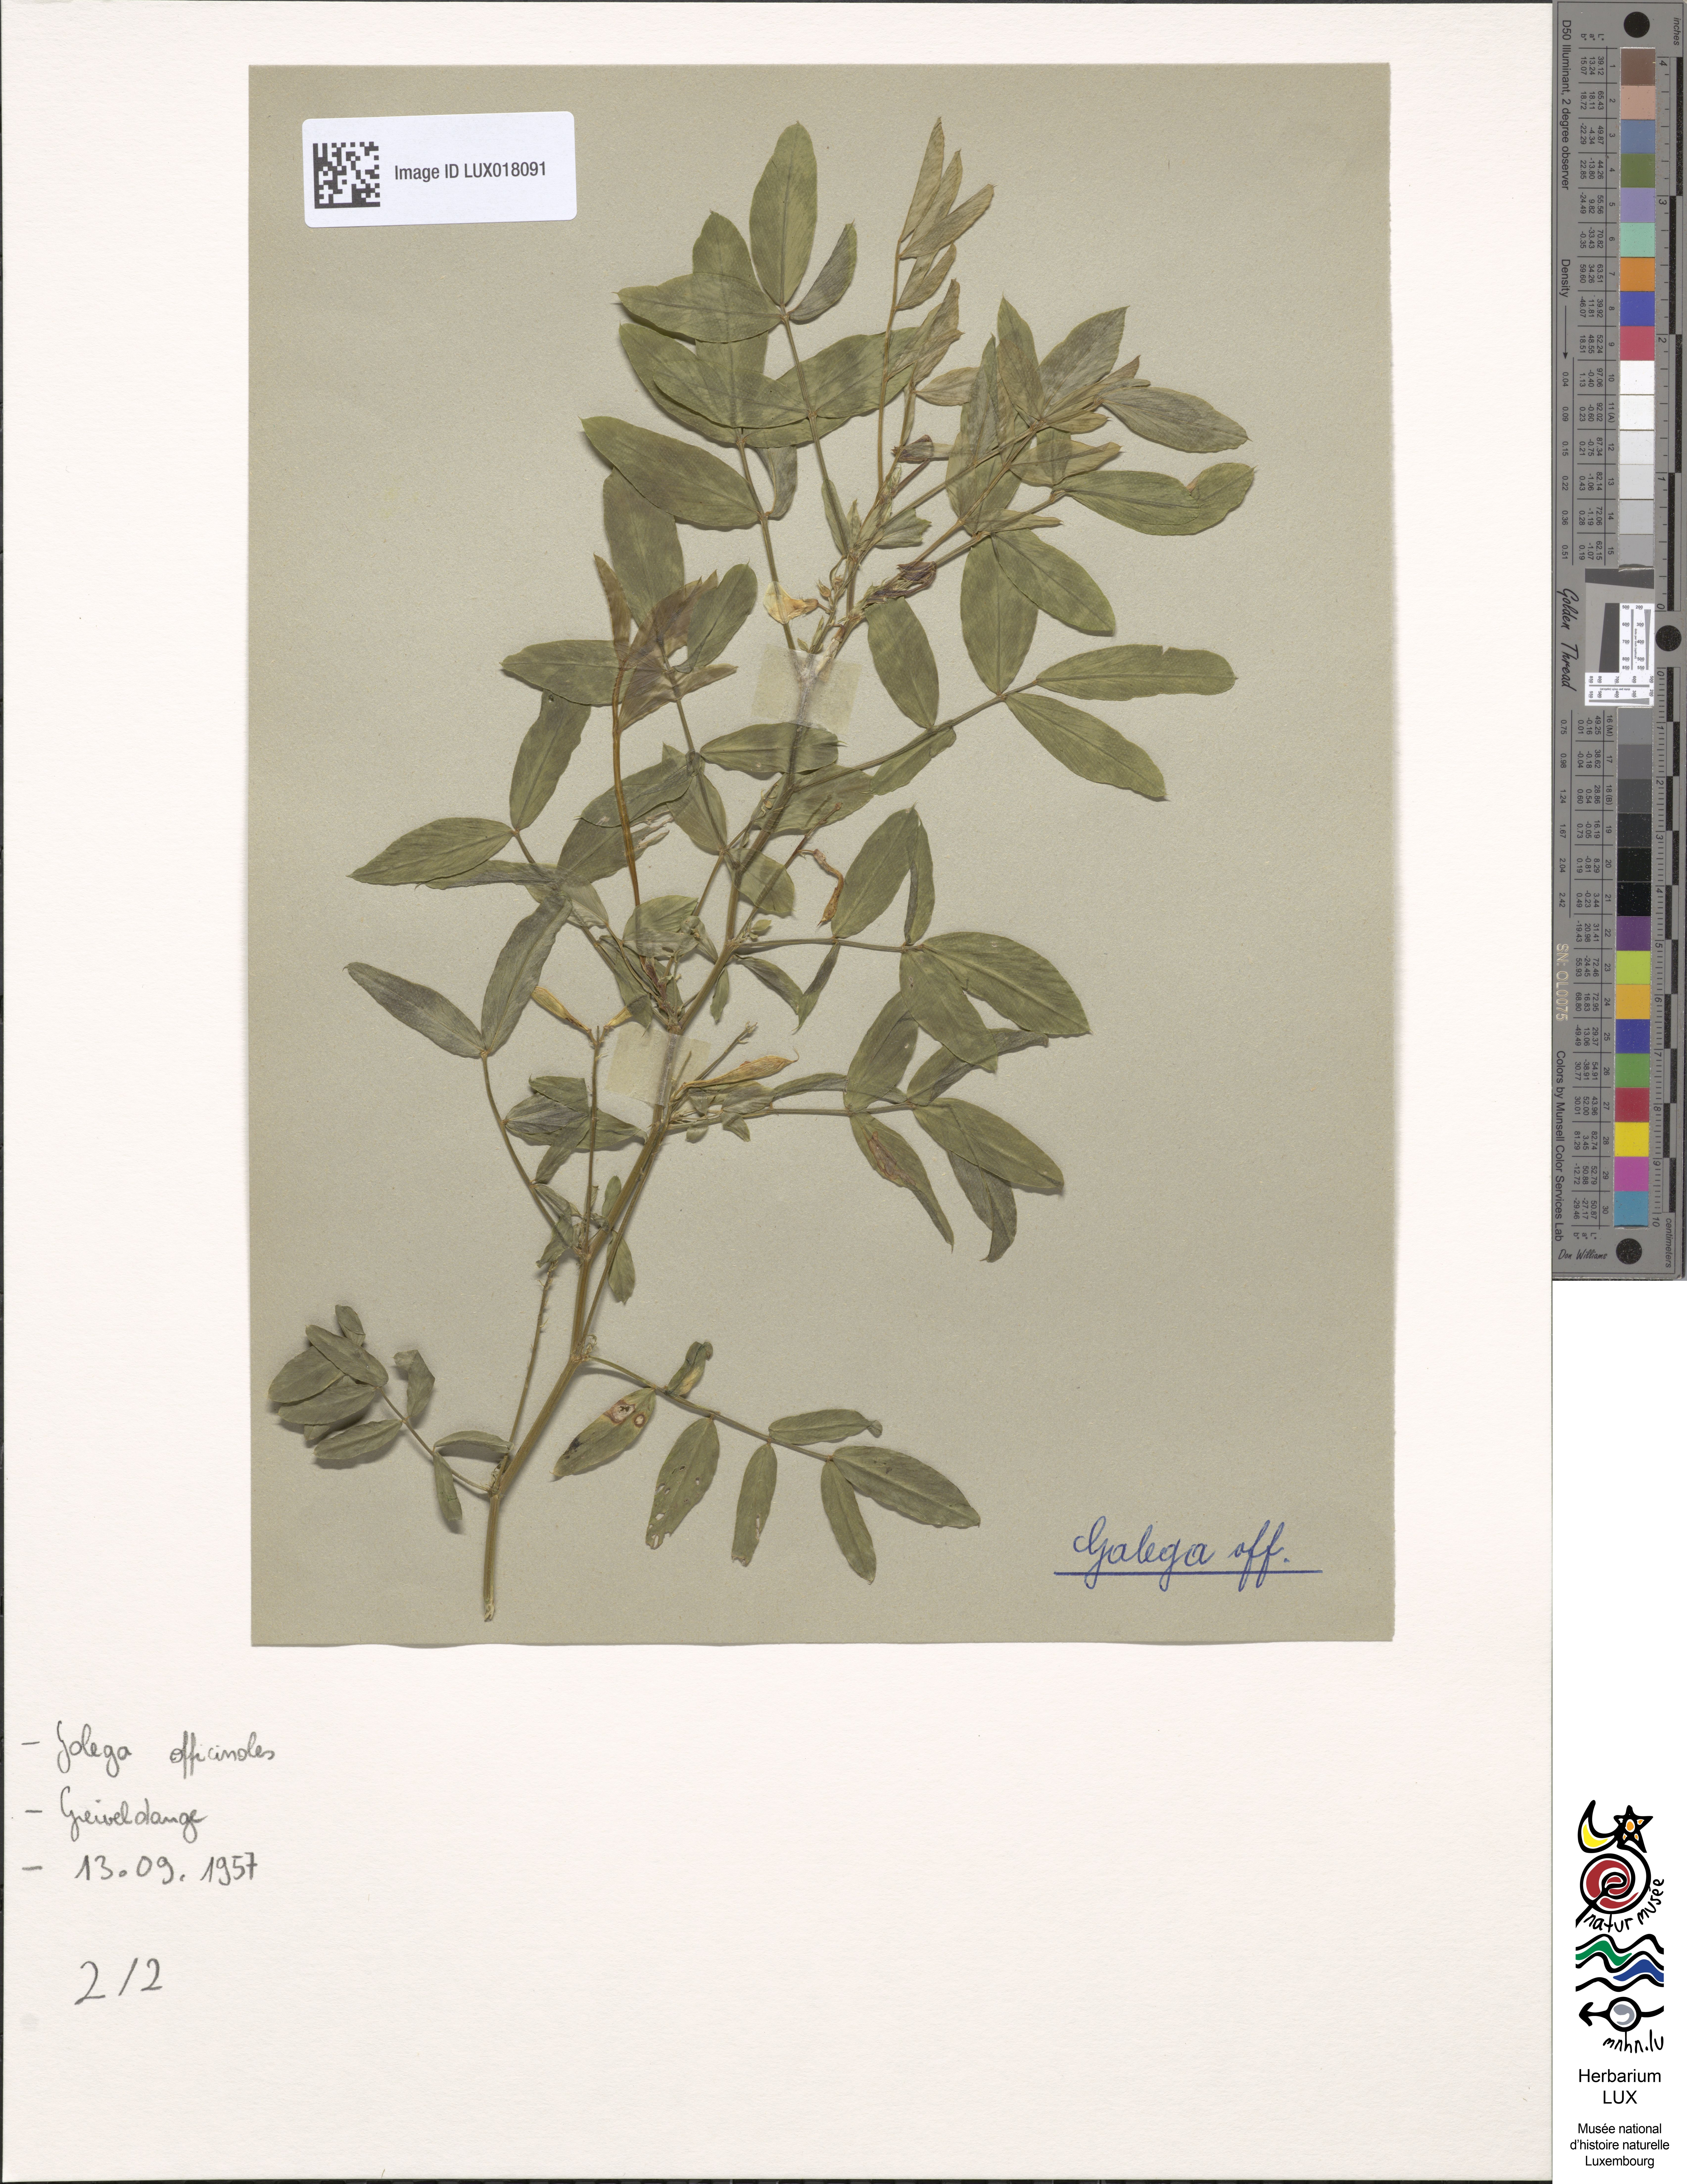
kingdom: Plantae
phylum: Tracheophyta
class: Magnoliopsida
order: Fabales
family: Fabaceae
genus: Galega
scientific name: Galega officinalis
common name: Goat's-rue
